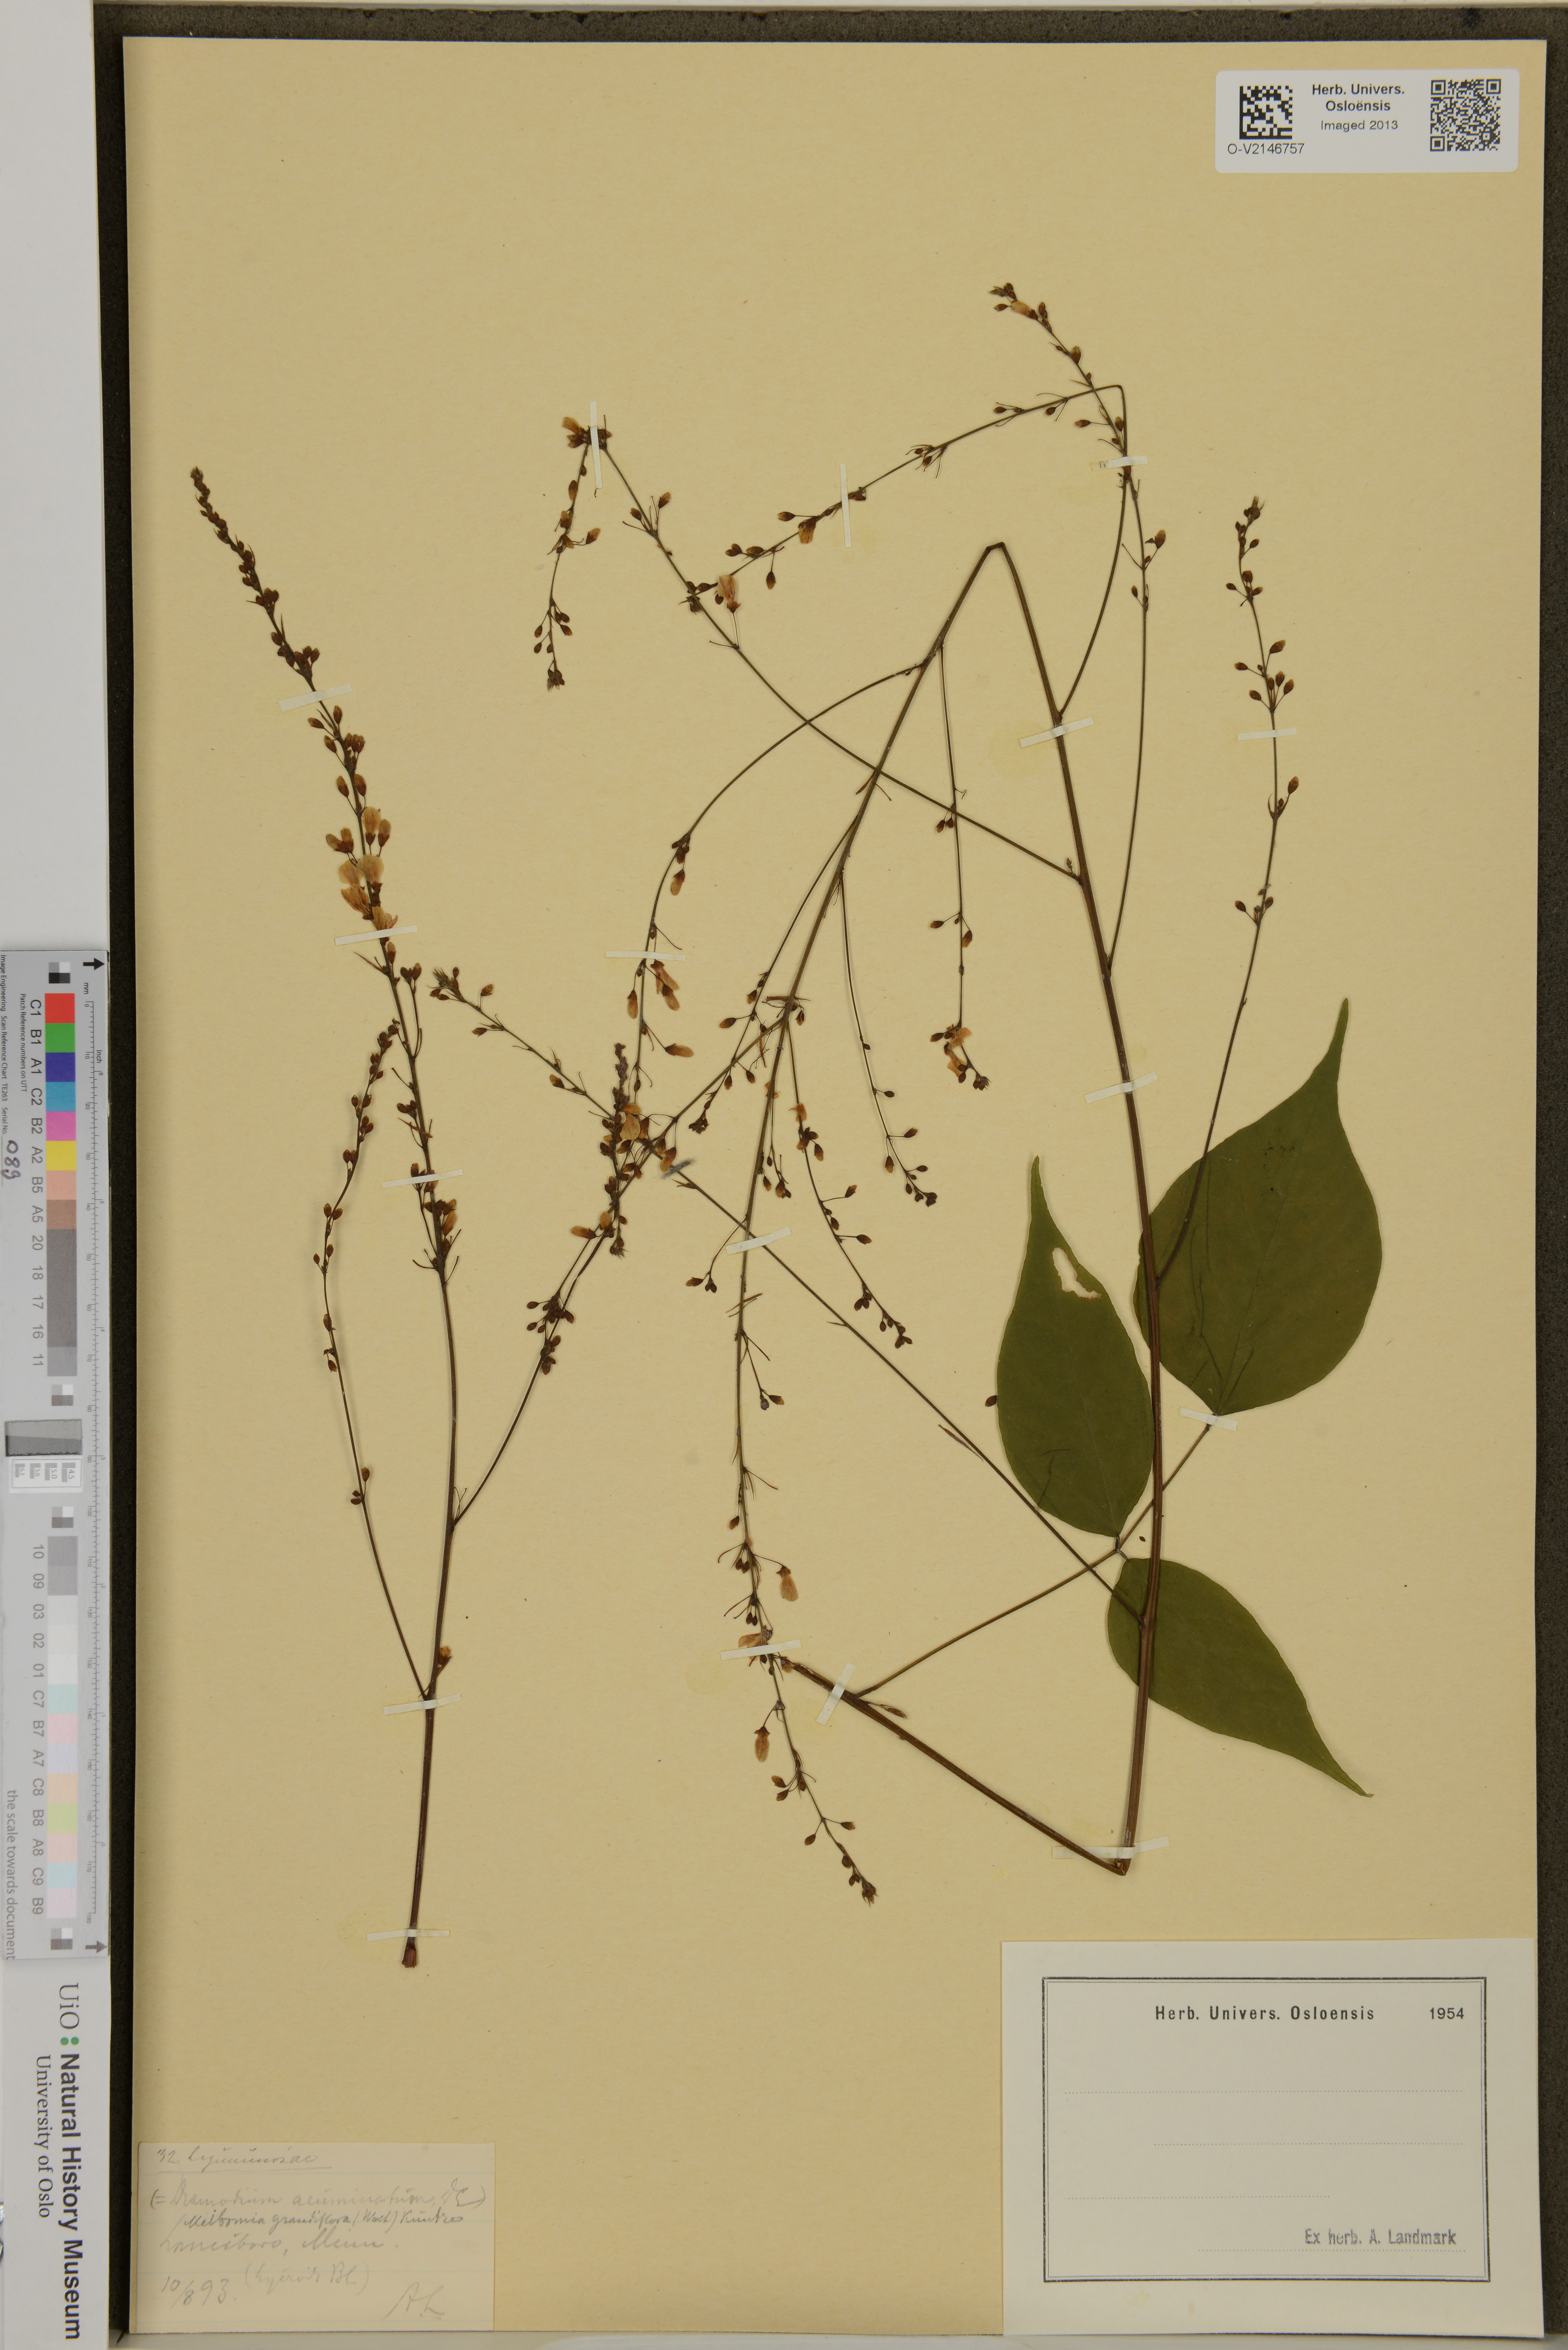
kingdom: Plantae
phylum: Tracheophyta
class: Magnoliopsida
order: Fabales
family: Fabaceae
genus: Hylodesmum
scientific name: Hylodesmum glutinosum
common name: Clustered-leaved tick-trefoil
